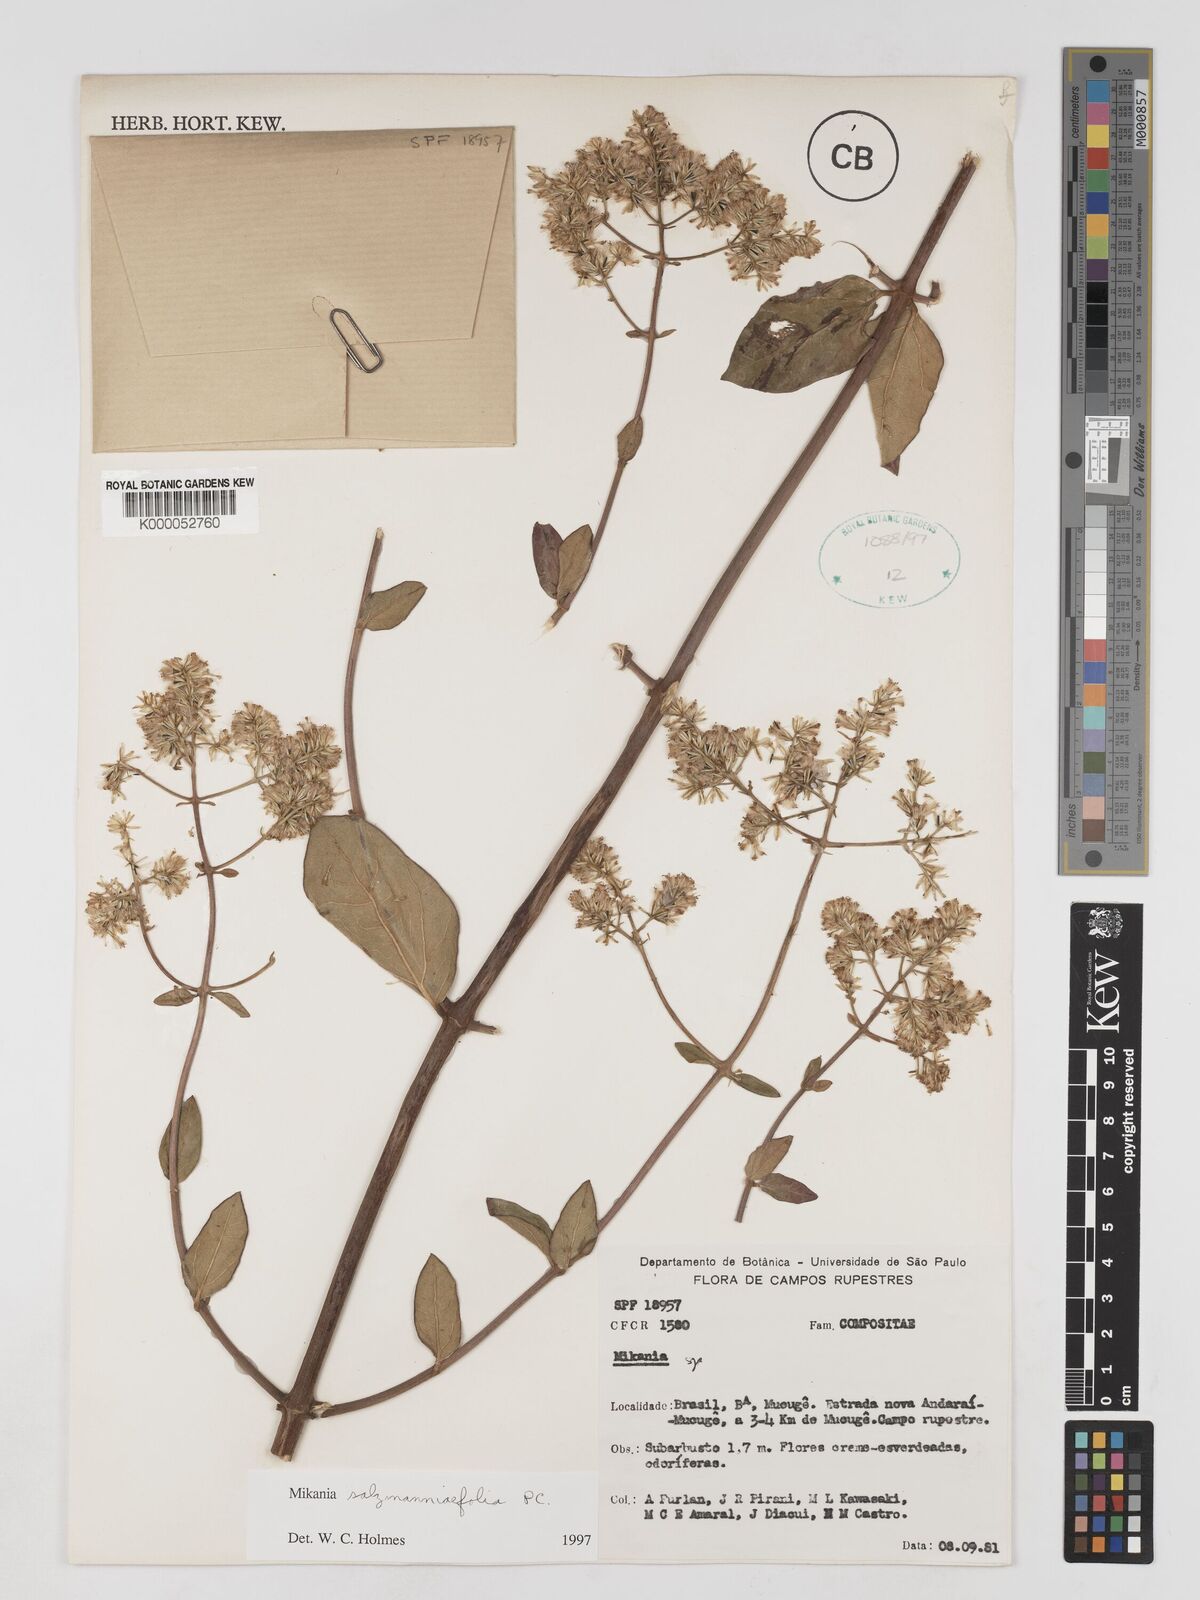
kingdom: Plantae
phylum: Tracheophyta
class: Magnoliopsida
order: Asterales
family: Asteraceae
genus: Mikania
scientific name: Mikania salzmanniifolia
